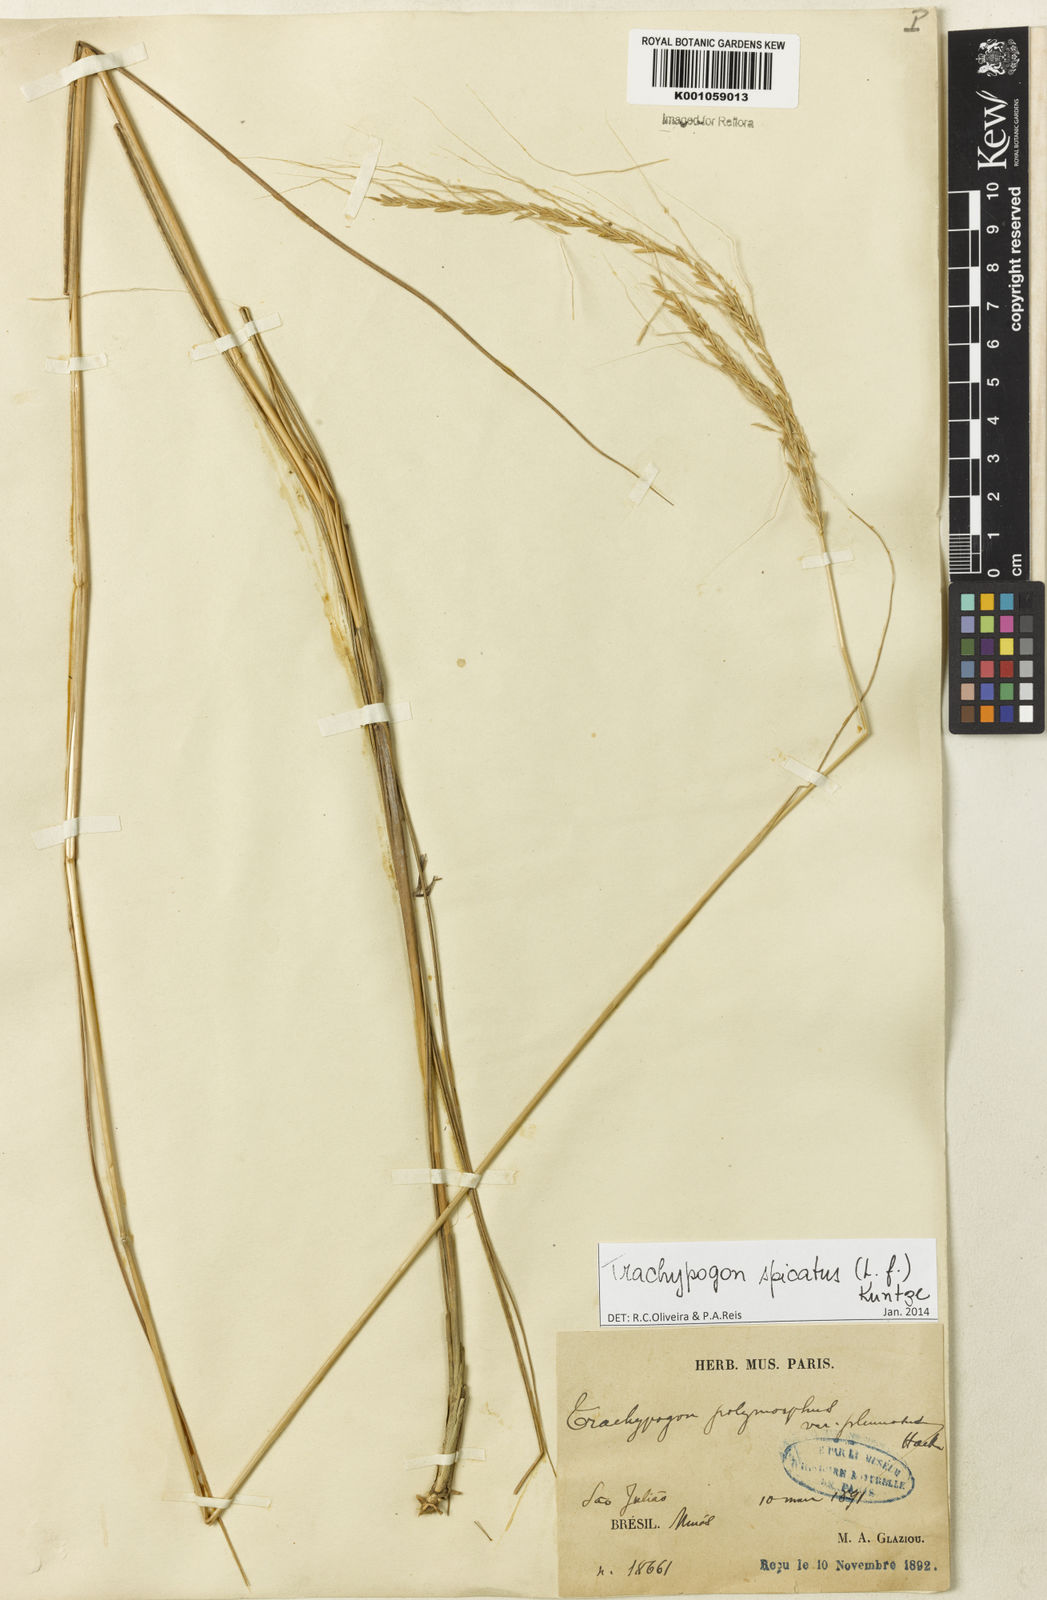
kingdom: Plantae
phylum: Tracheophyta
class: Liliopsida
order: Poales
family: Poaceae
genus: Trachypogon
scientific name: Trachypogon spicatus
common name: Crinkle-awn
